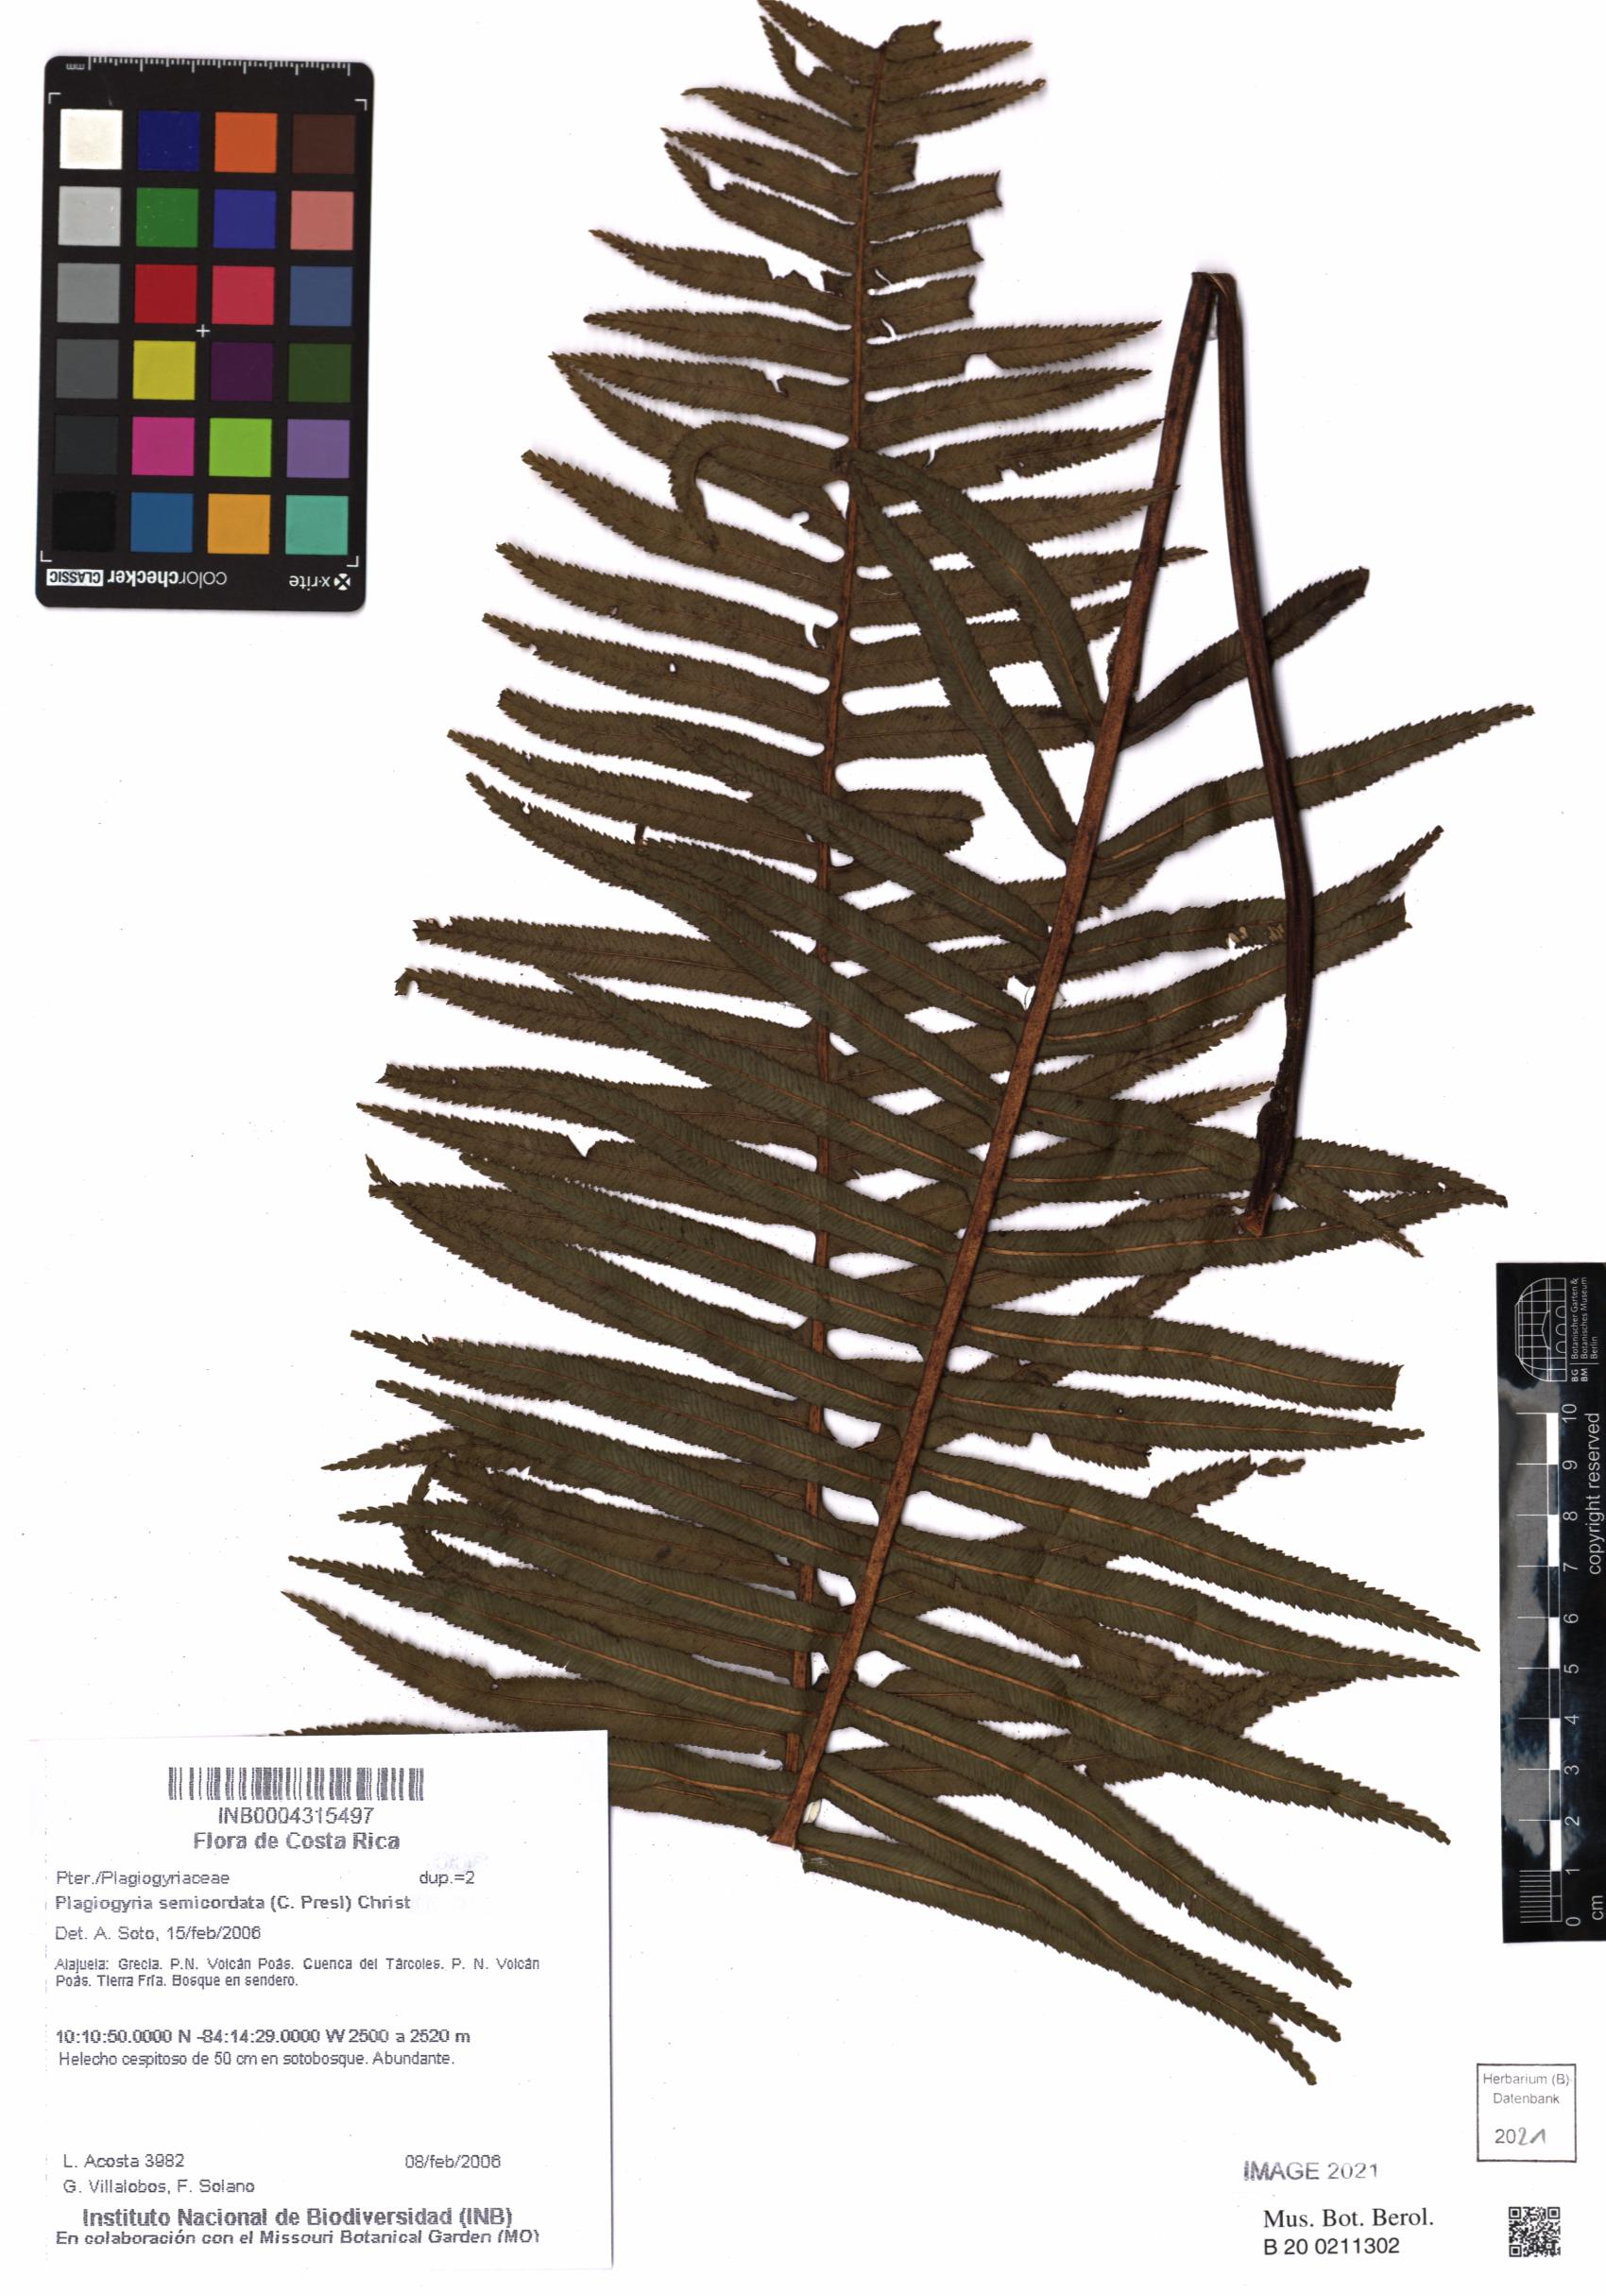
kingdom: Plantae
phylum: Tracheophyta
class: Polypodiopsida
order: Cyatheales
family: Plagiogyriaceae
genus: Plagiogyria
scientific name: Plagiogyria pectinata
